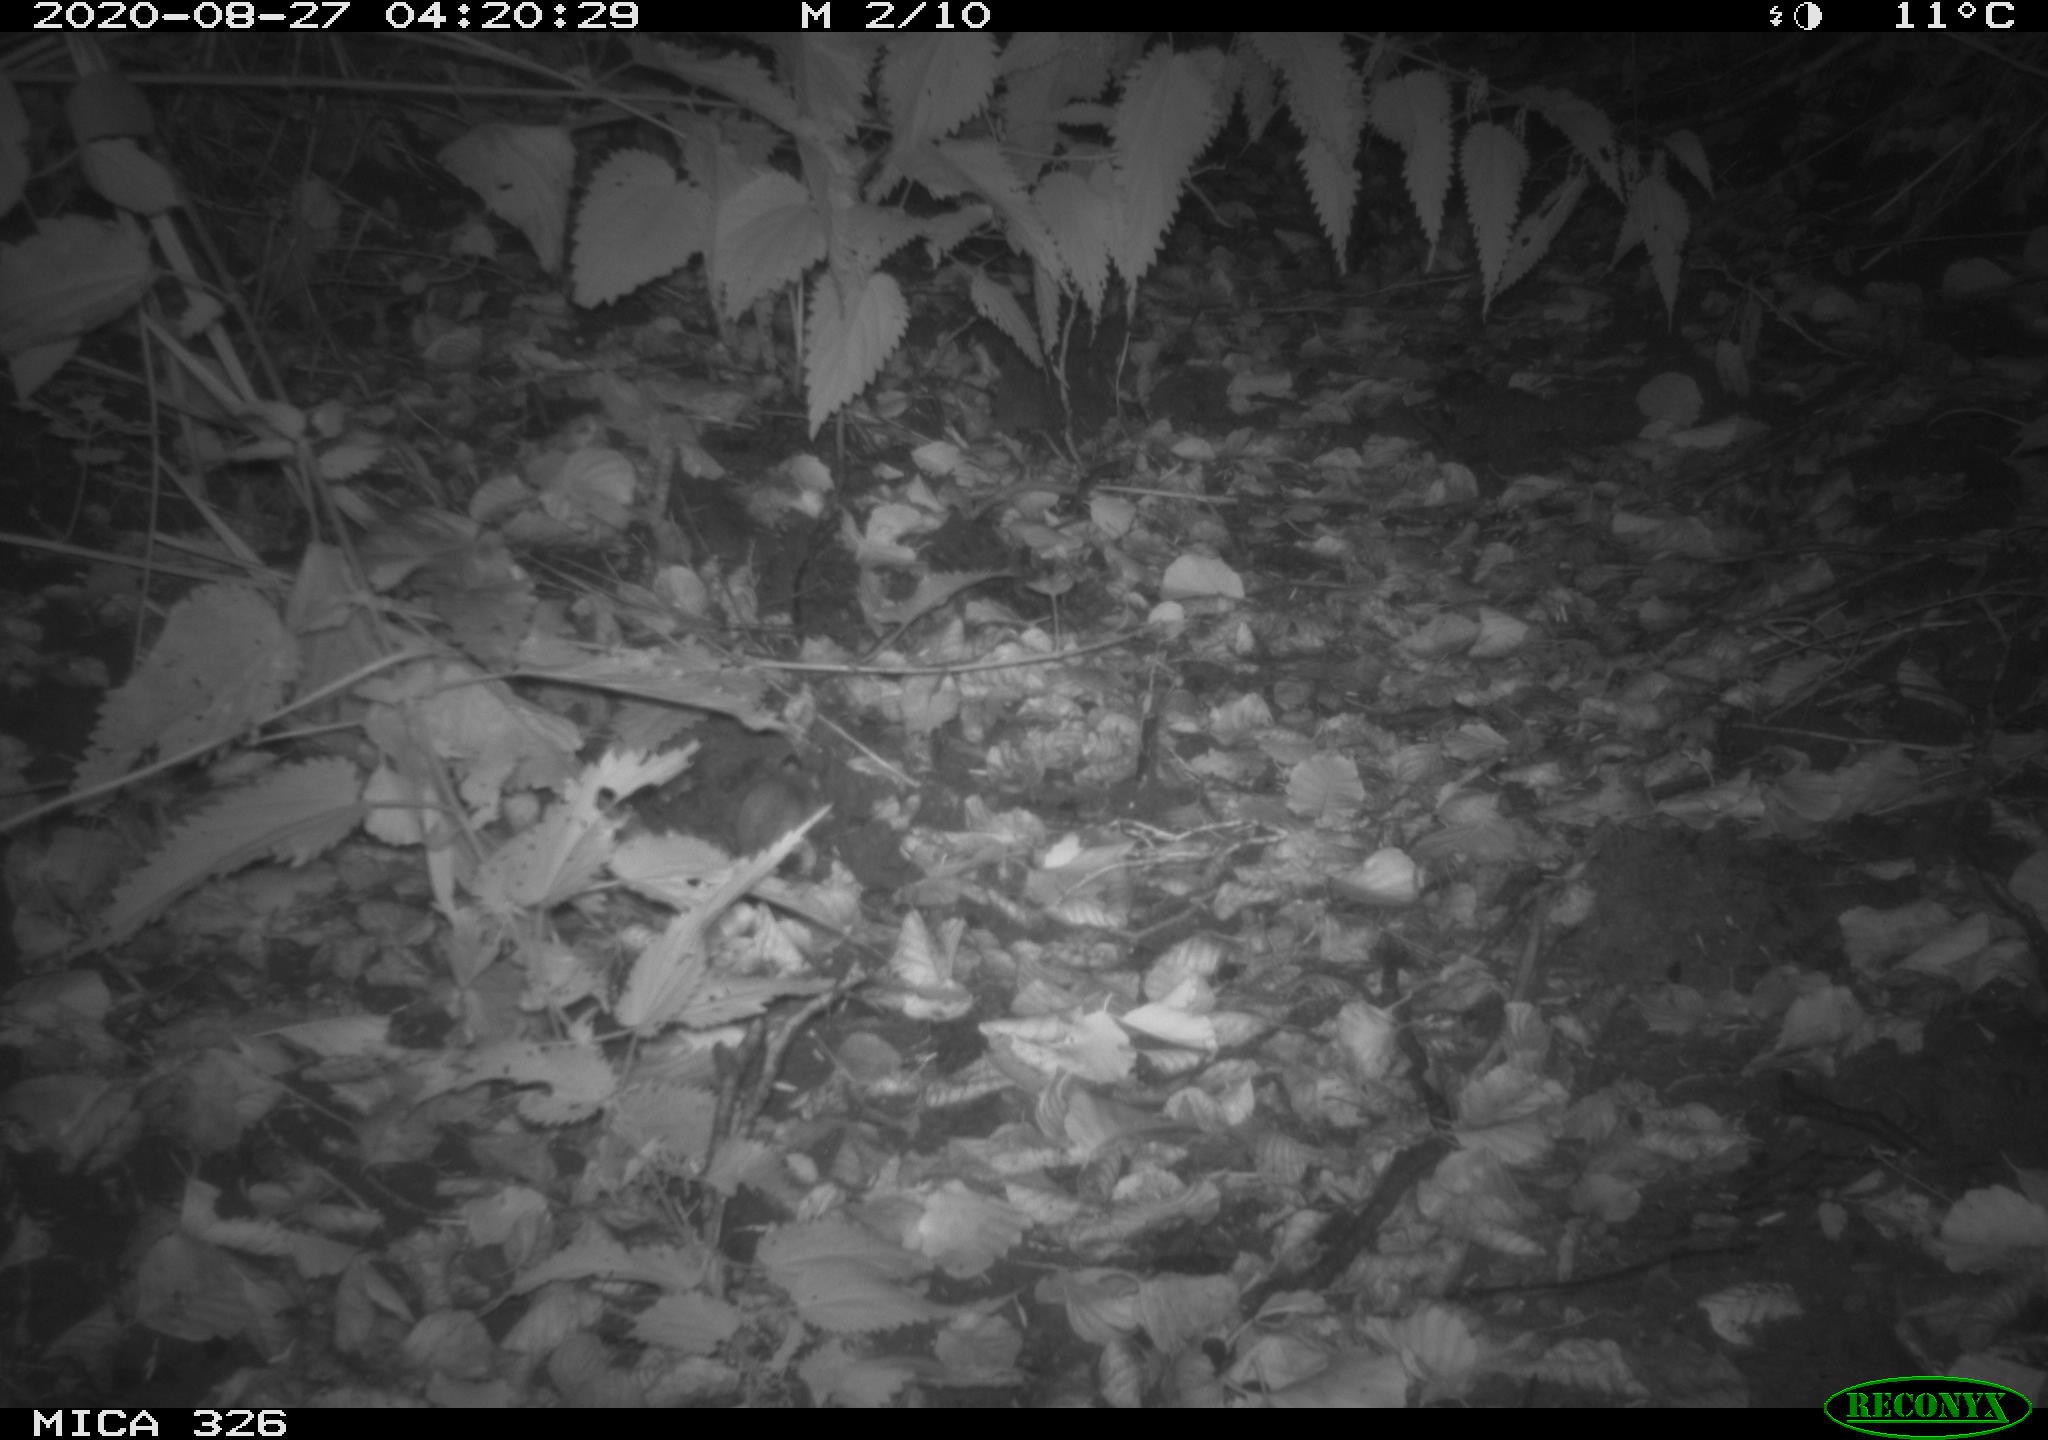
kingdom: Animalia
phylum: Chordata
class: Mammalia
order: Rodentia
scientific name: Rodentia
